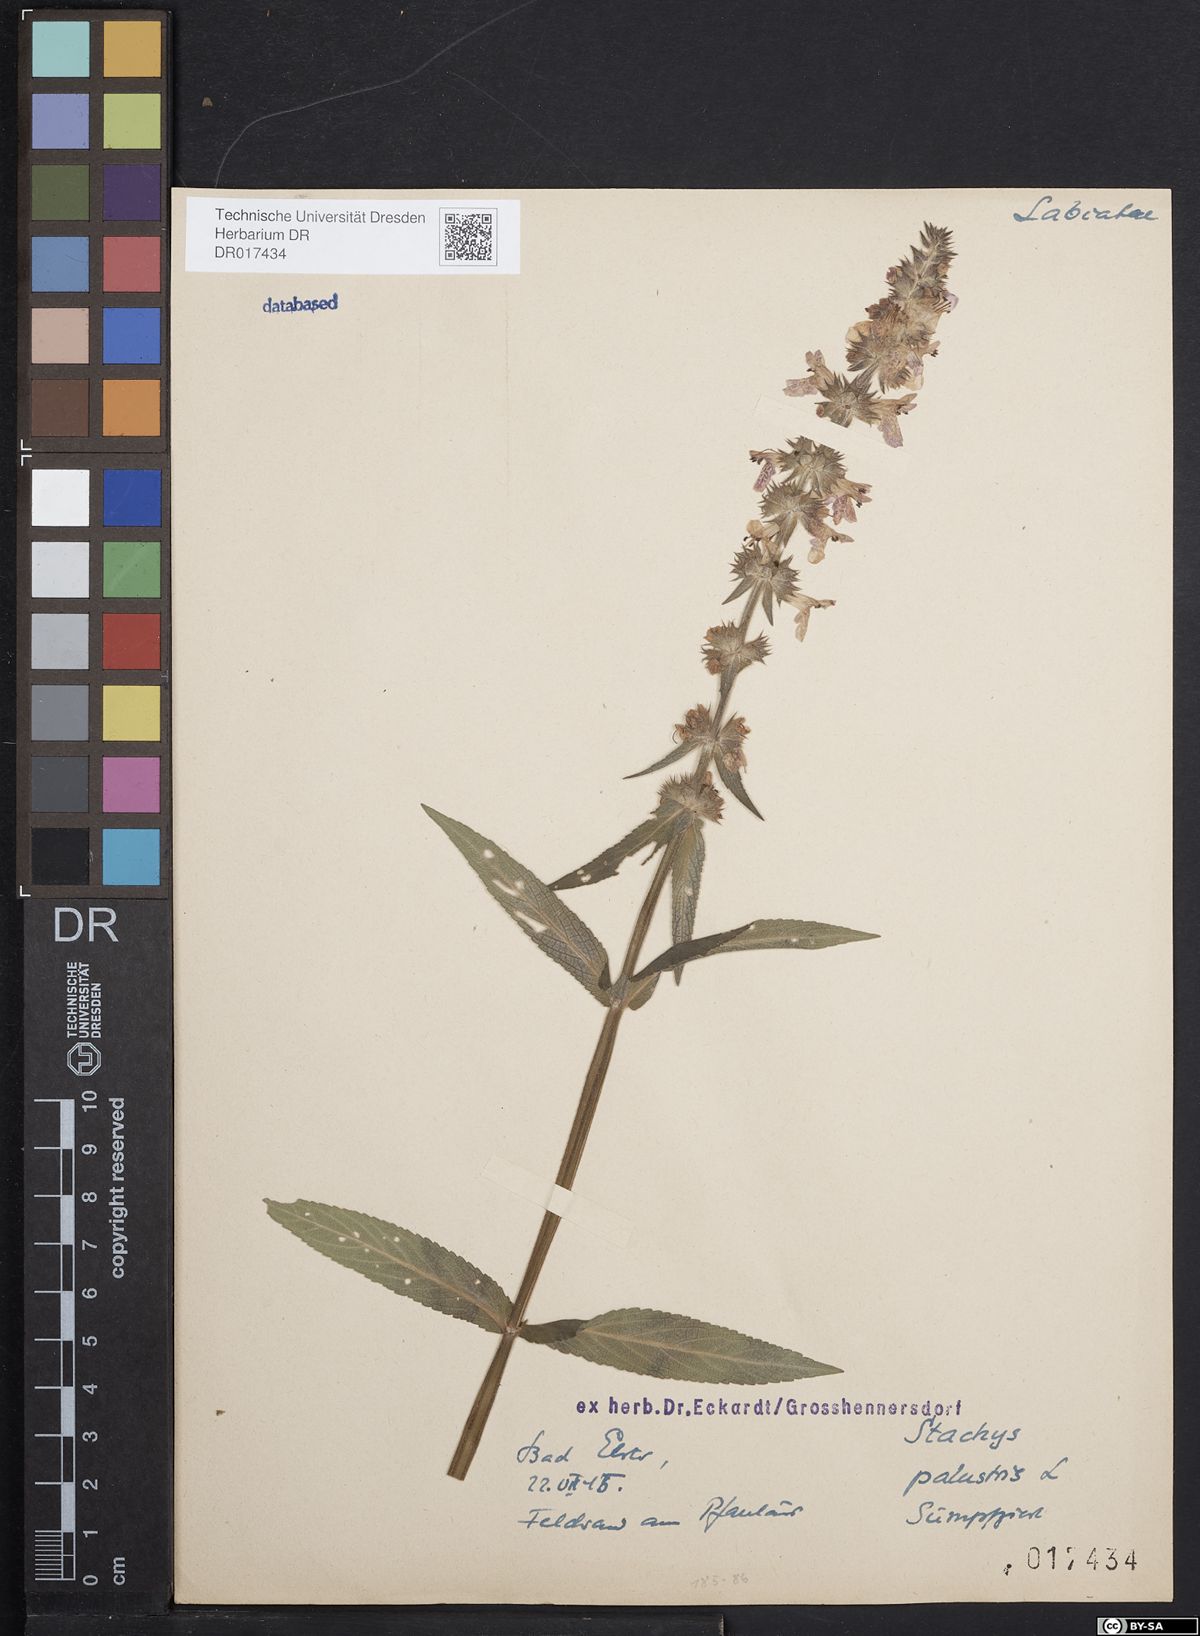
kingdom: Plantae
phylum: Tracheophyta
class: Magnoliopsida
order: Lamiales
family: Lamiaceae
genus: Stachys
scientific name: Stachys palustris
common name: Marsh woundwort
